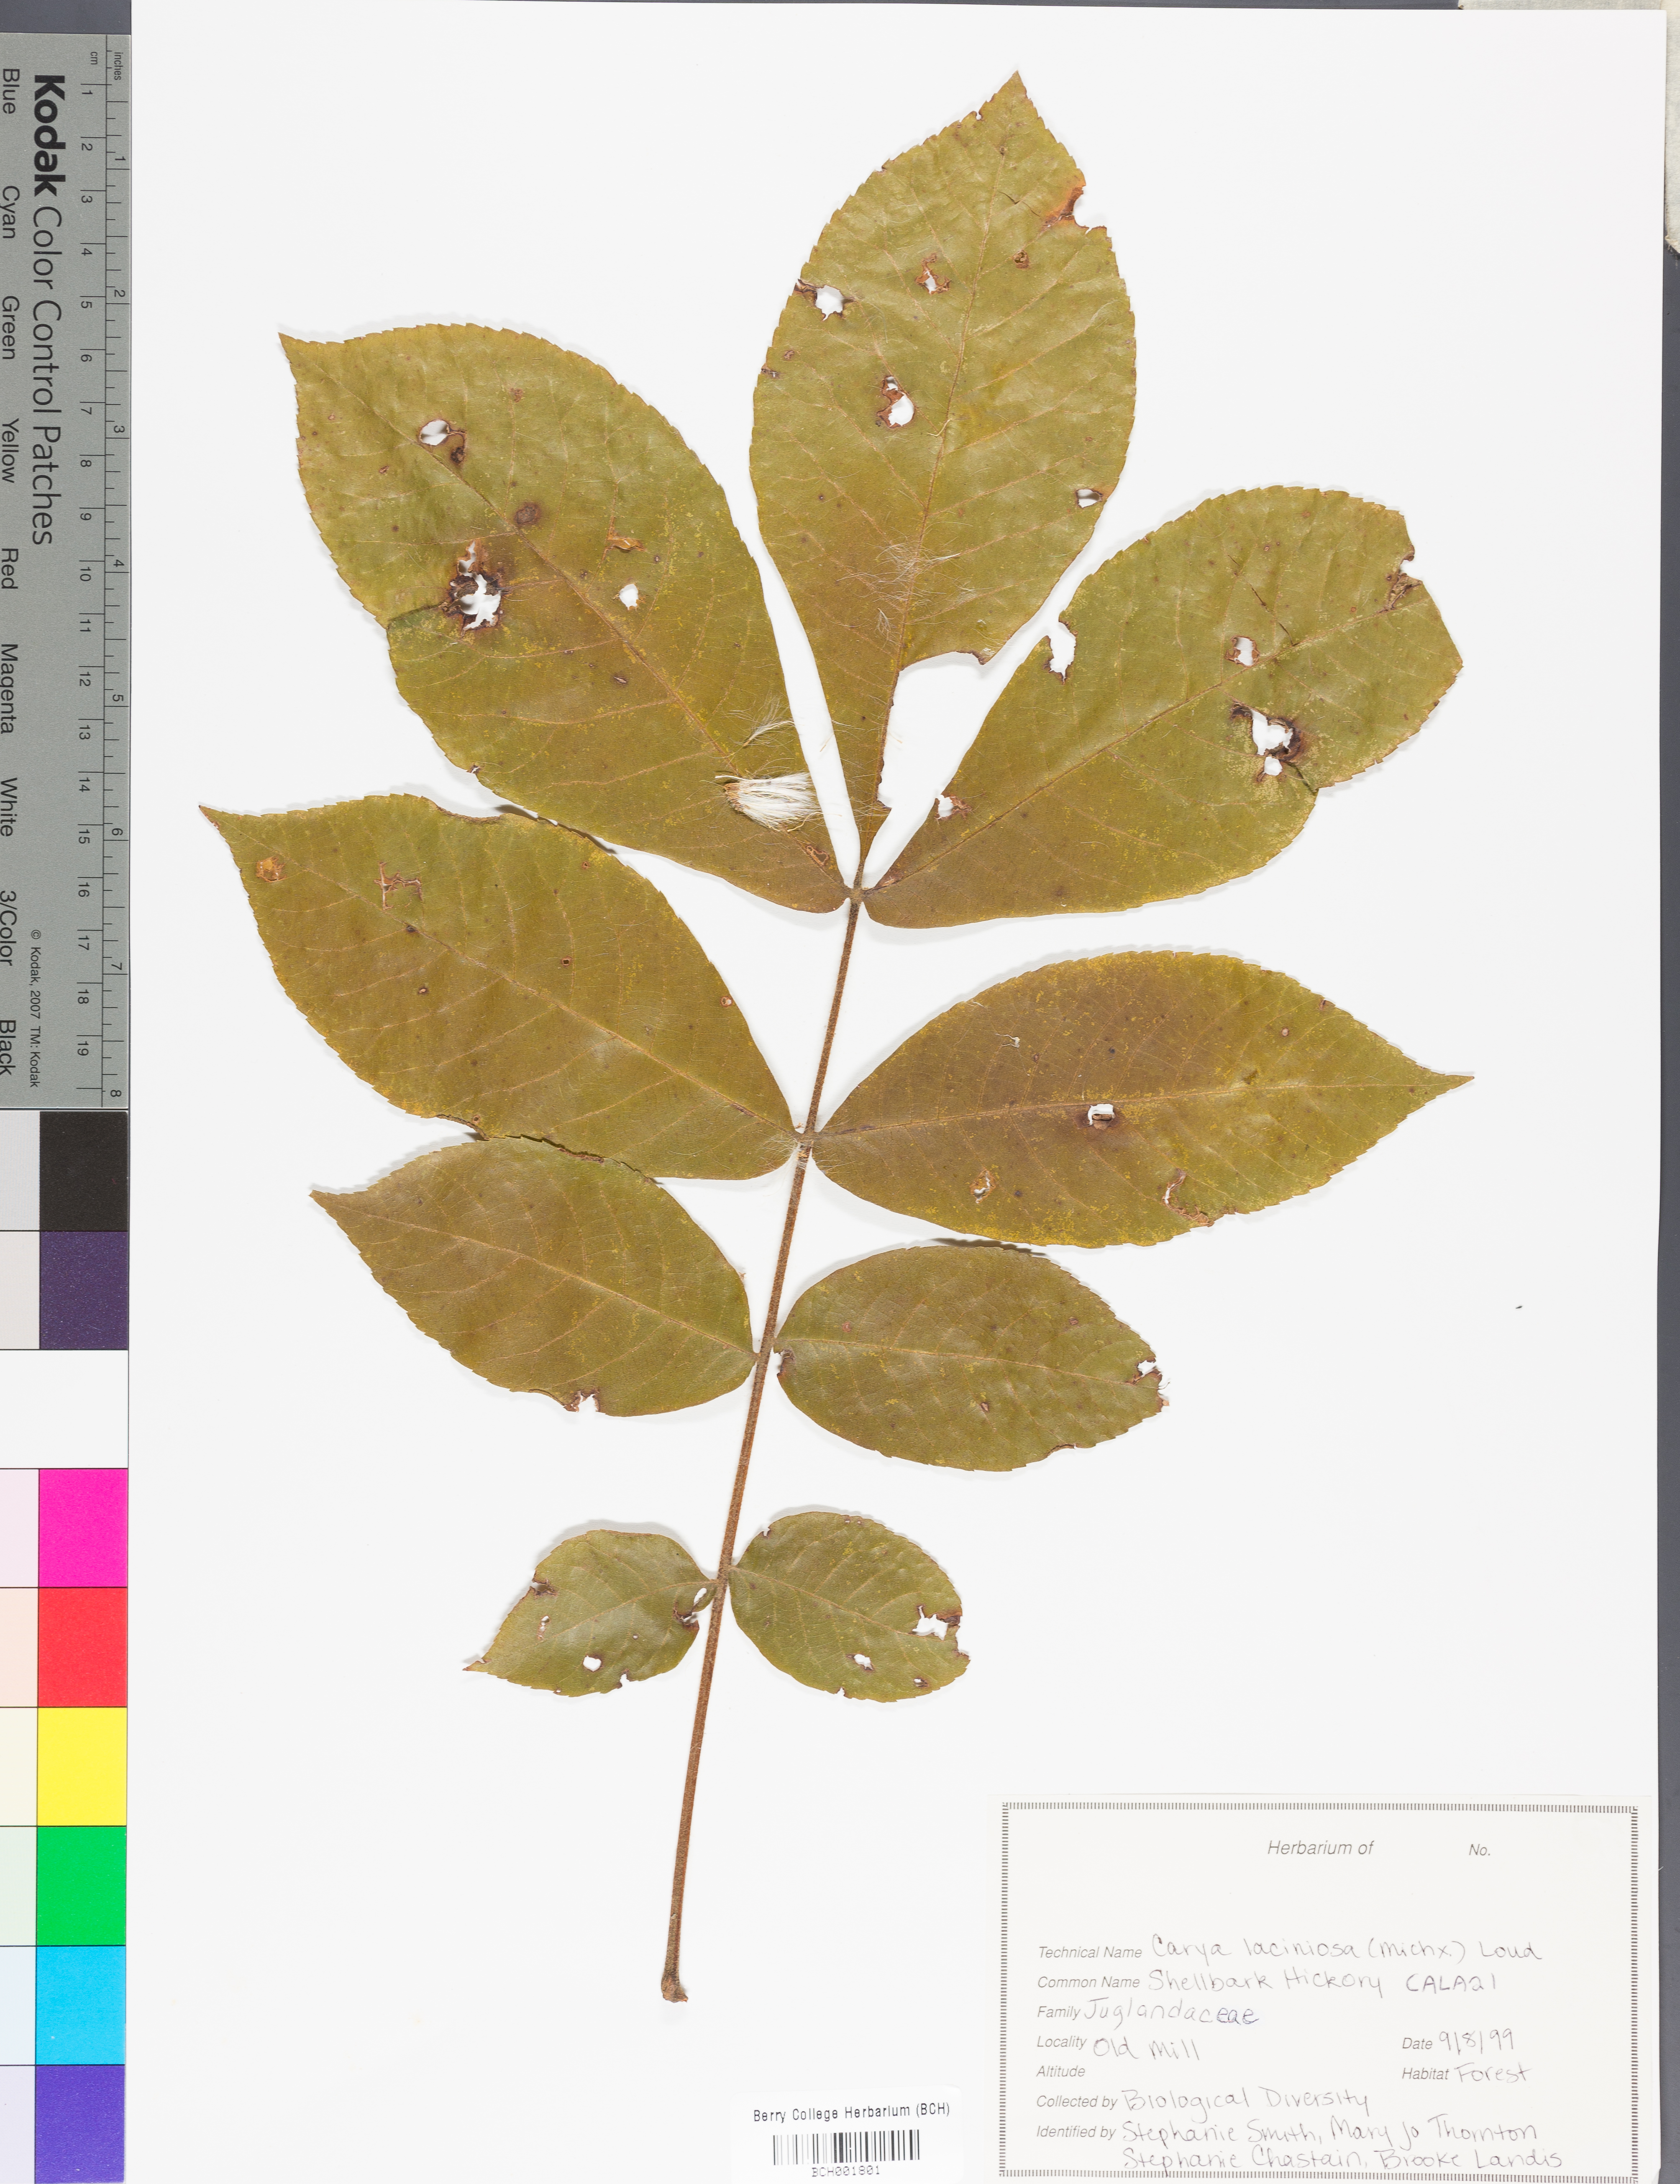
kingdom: Plantae
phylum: Tracheophyta
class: Magnoliopsida
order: Fagales
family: Juglandaceae
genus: Carya
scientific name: Carya laciniosa
